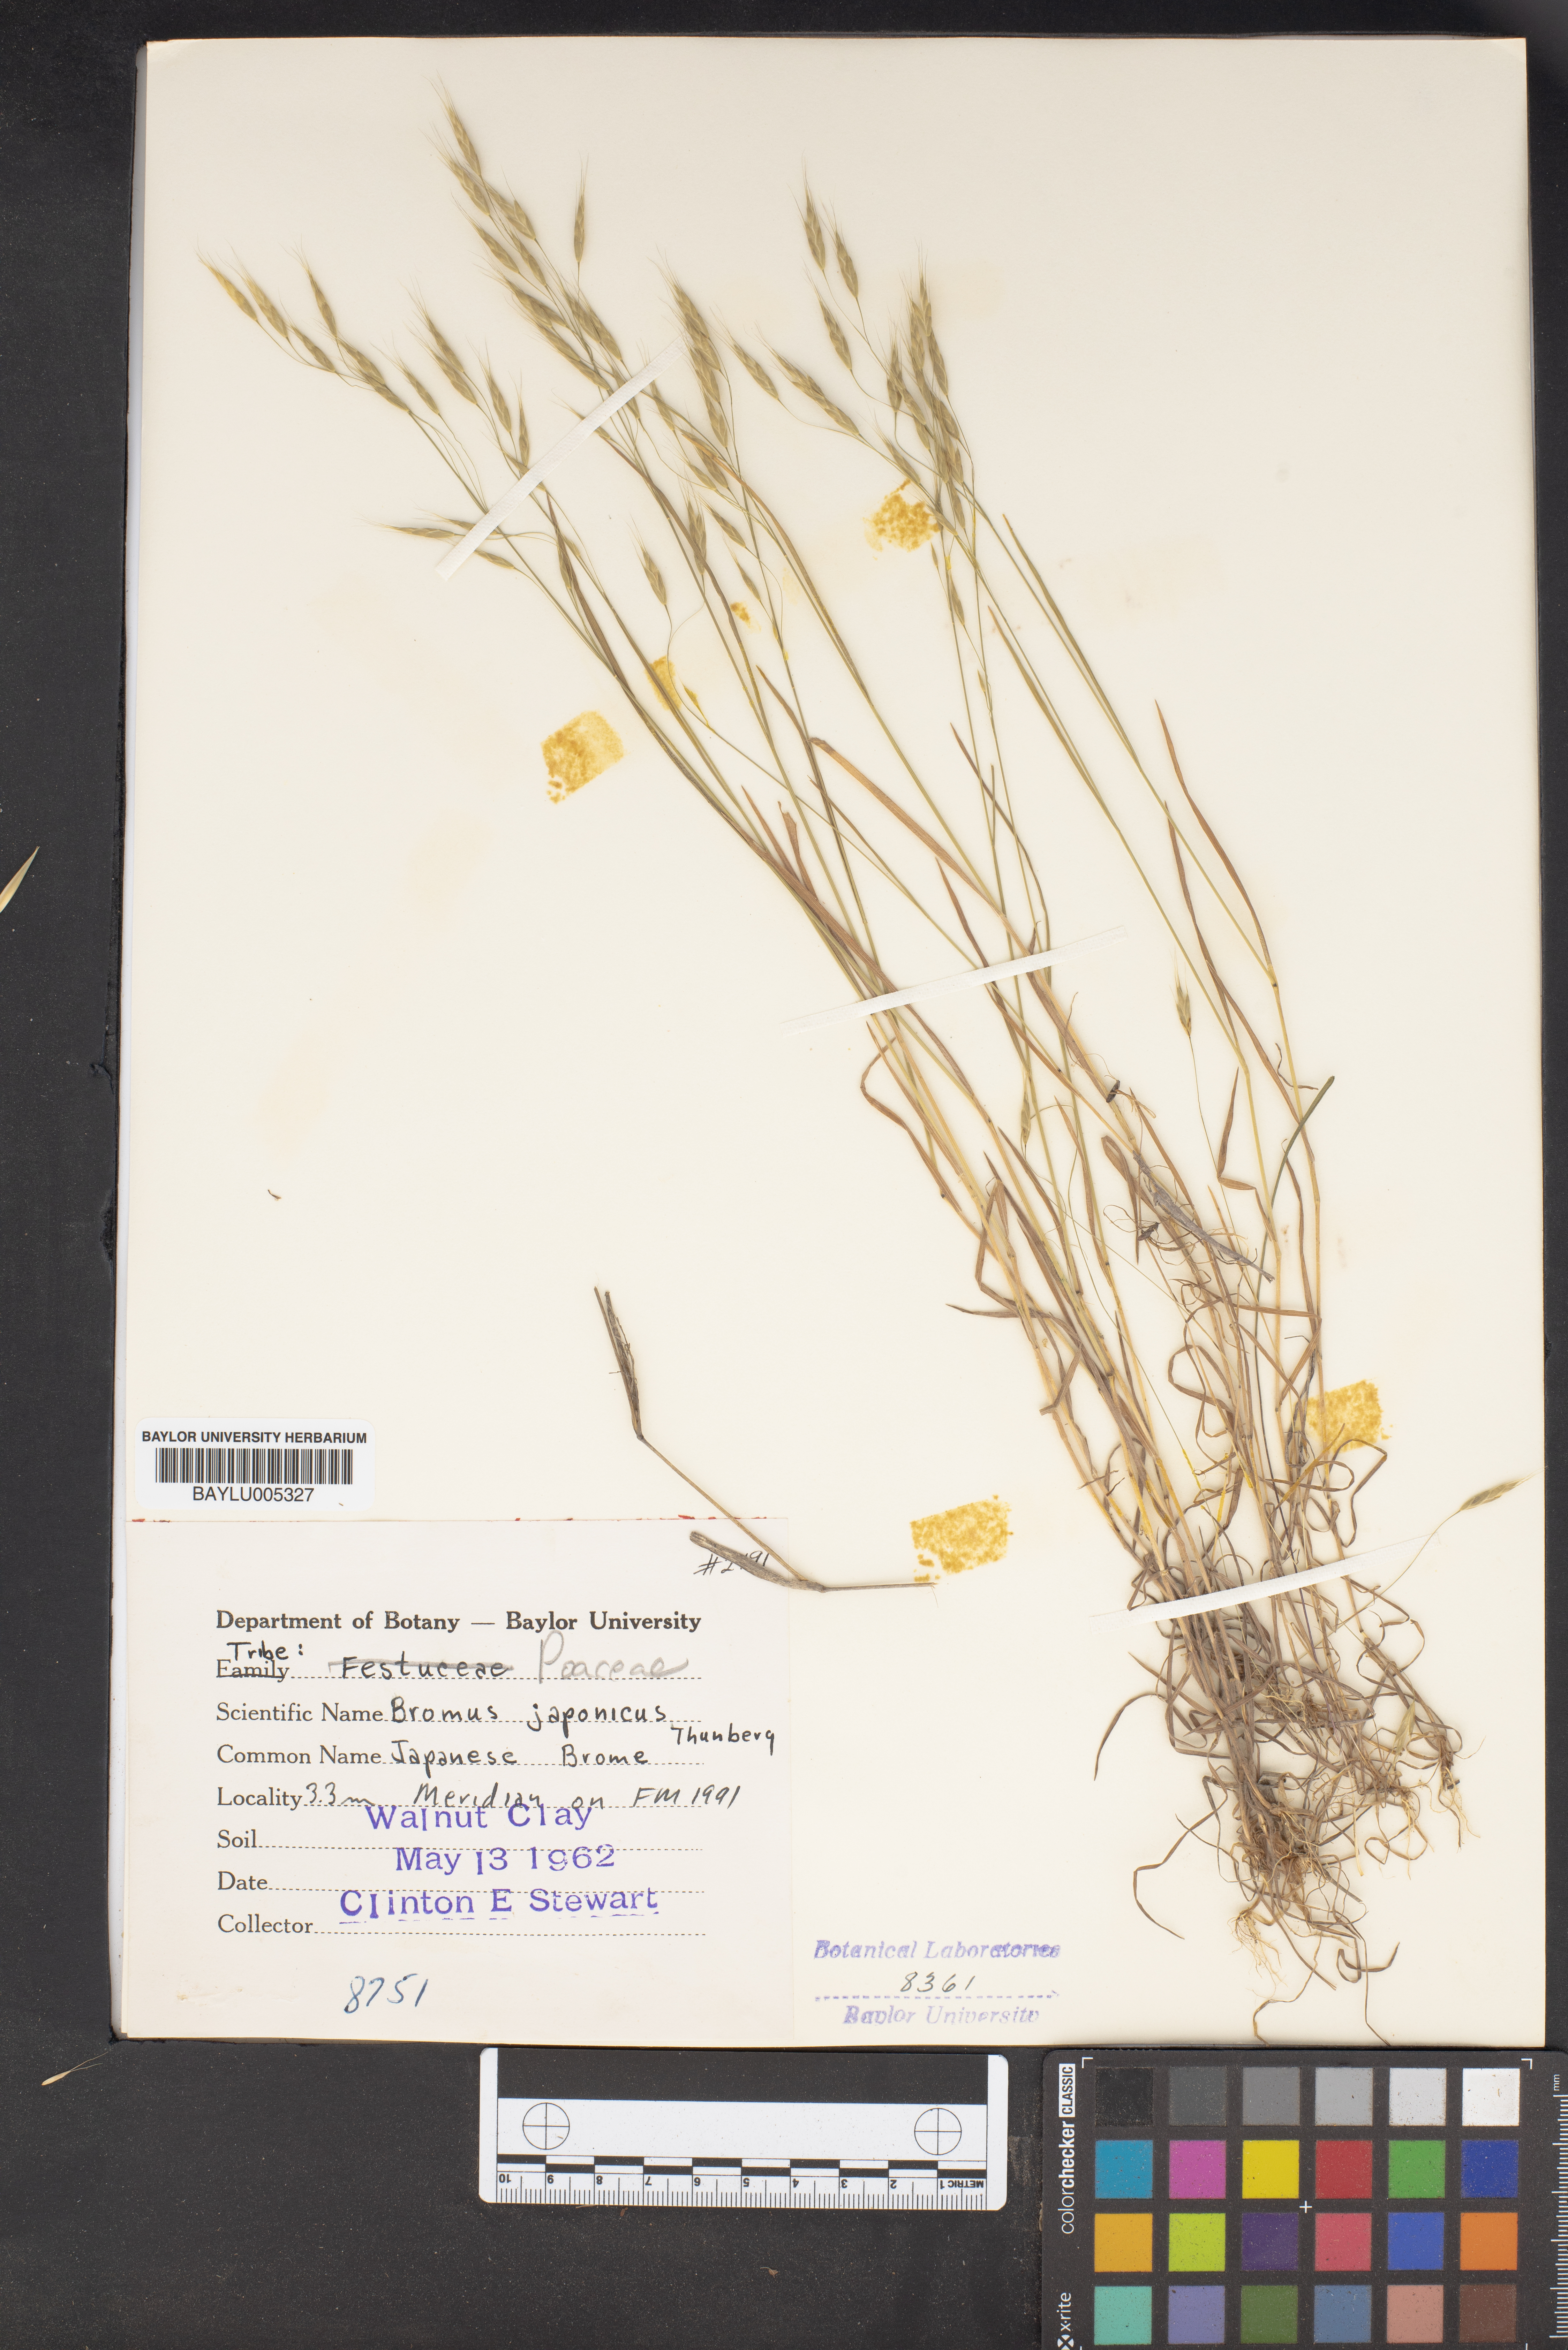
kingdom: Plantae
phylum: Tracheophyta
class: Liliopsida
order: Poales
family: Poaceae
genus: Bromus
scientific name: Bromus japonicus
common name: Japanese brome
